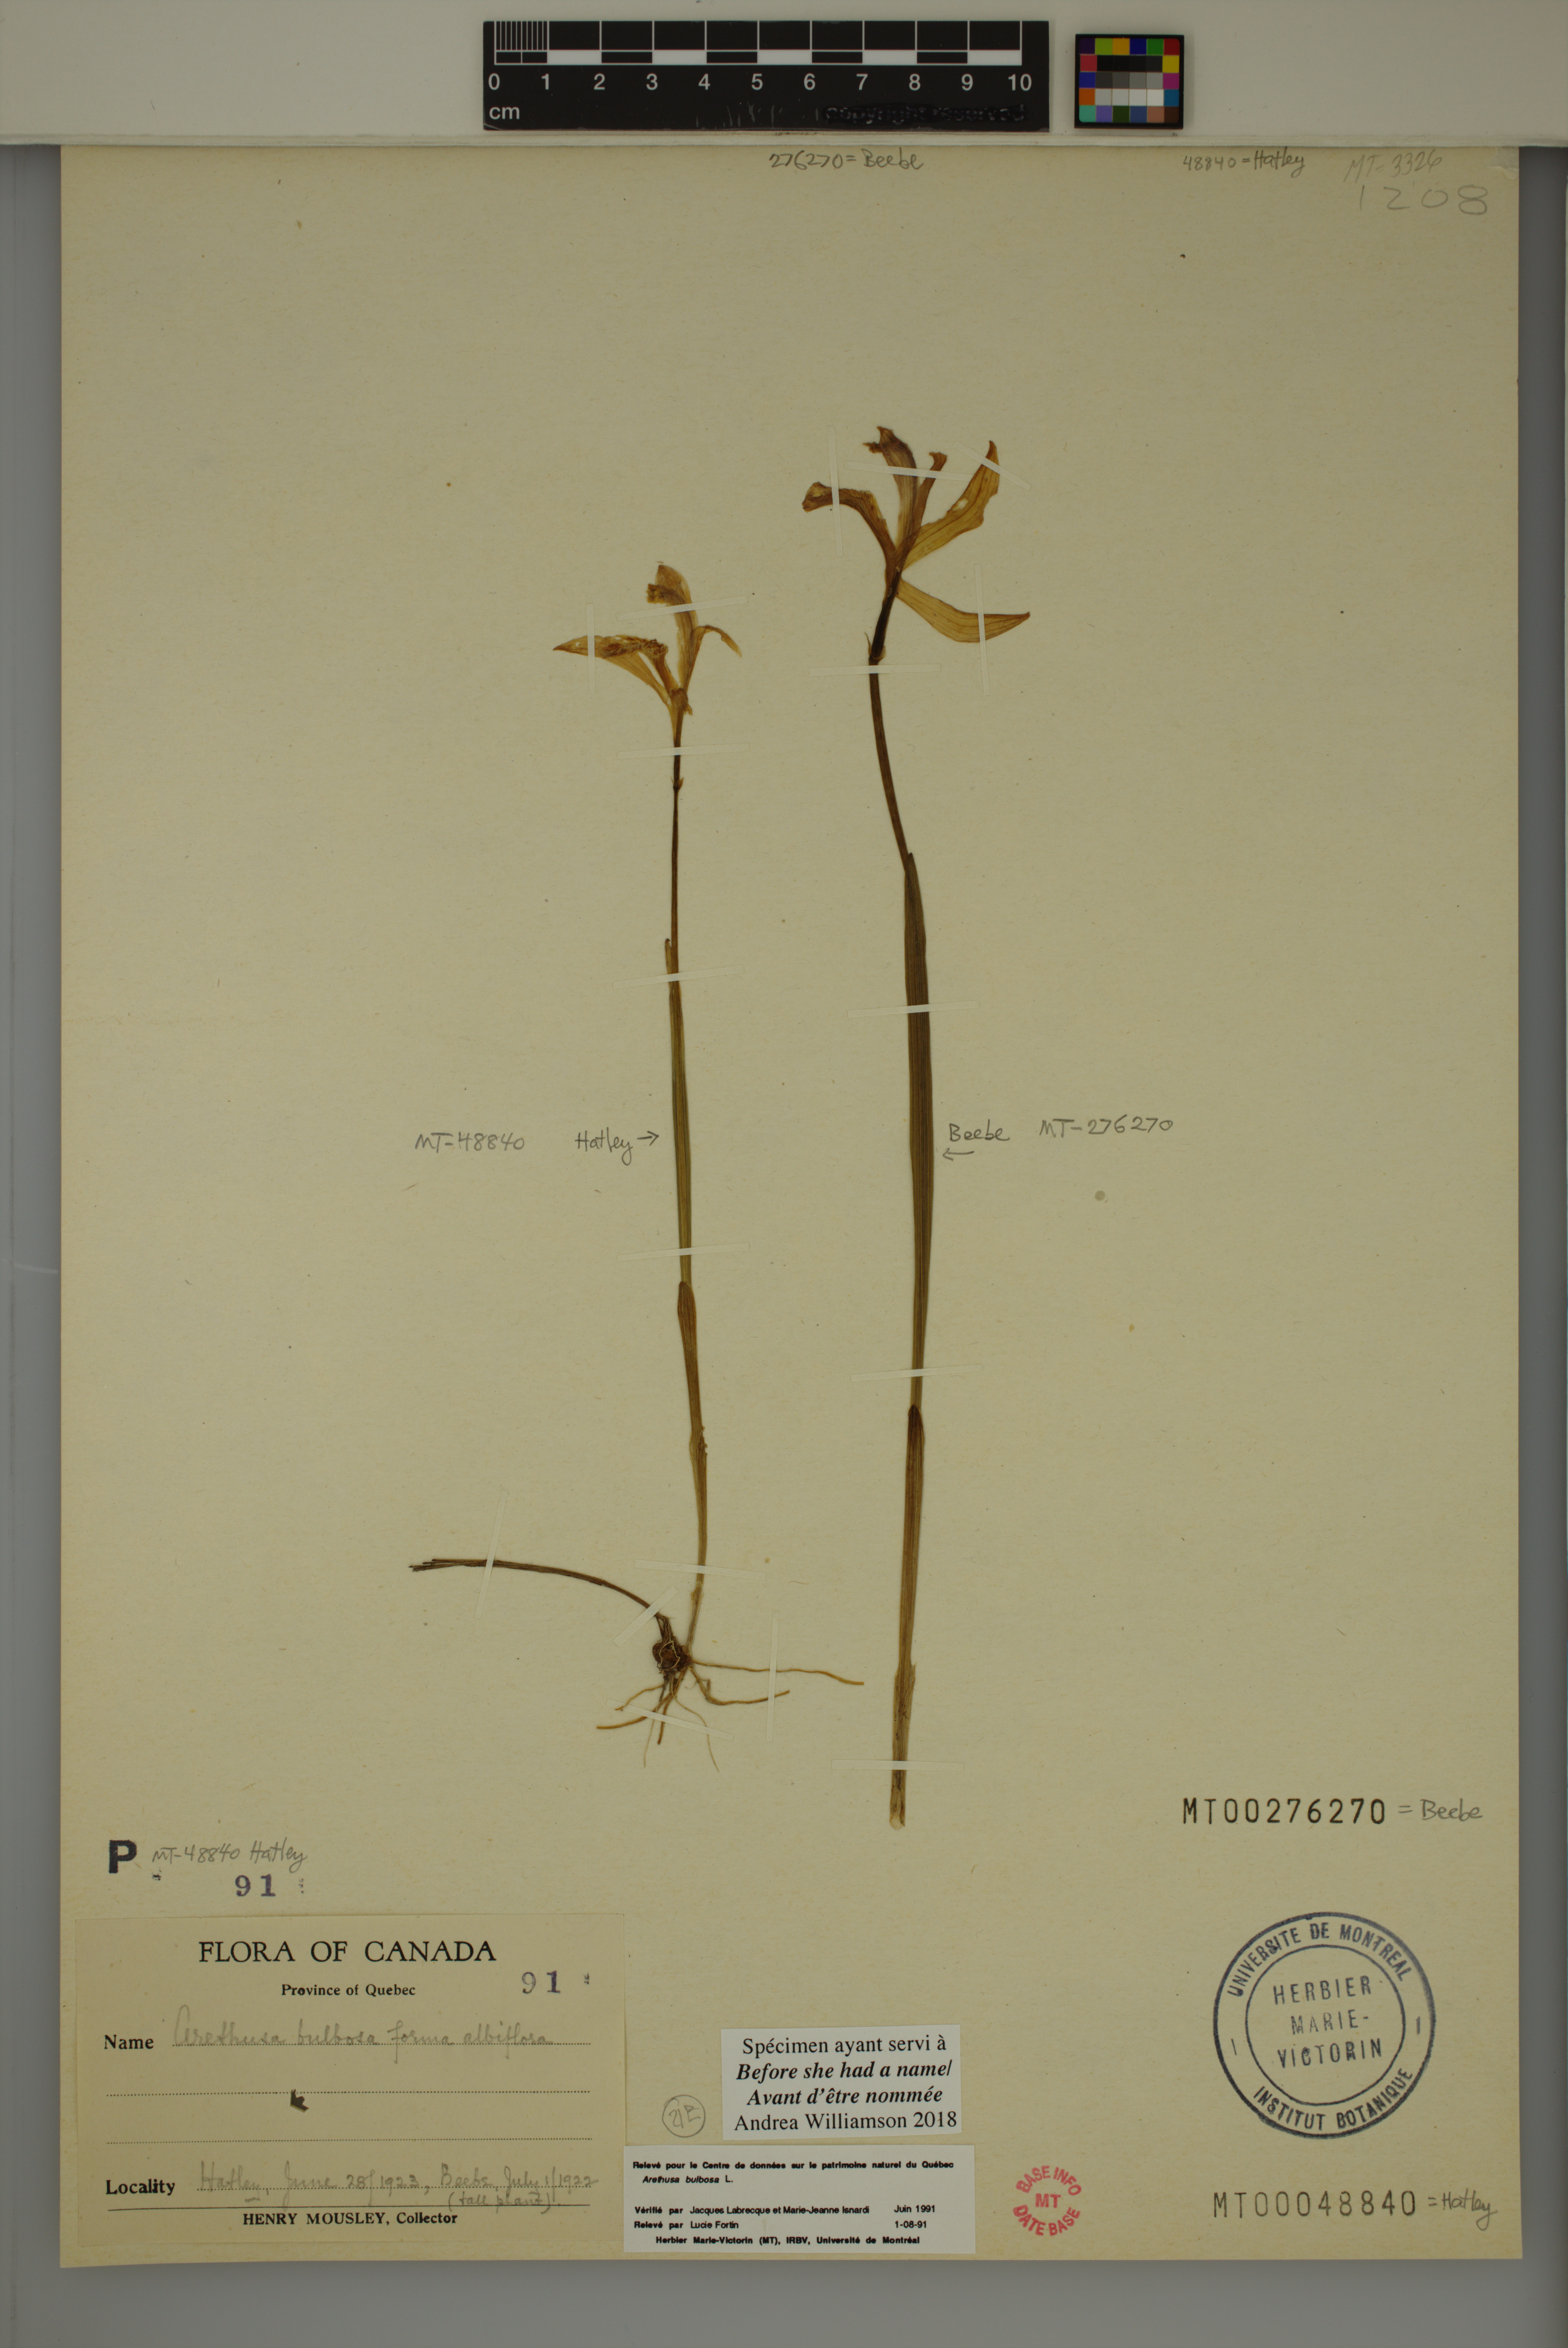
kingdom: Plantae
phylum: Tracheophyta
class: Liliopsida
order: Asparagales
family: Orchidaceae
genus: Arethusa
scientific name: Arethusa bulbosa
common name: Arethusa
